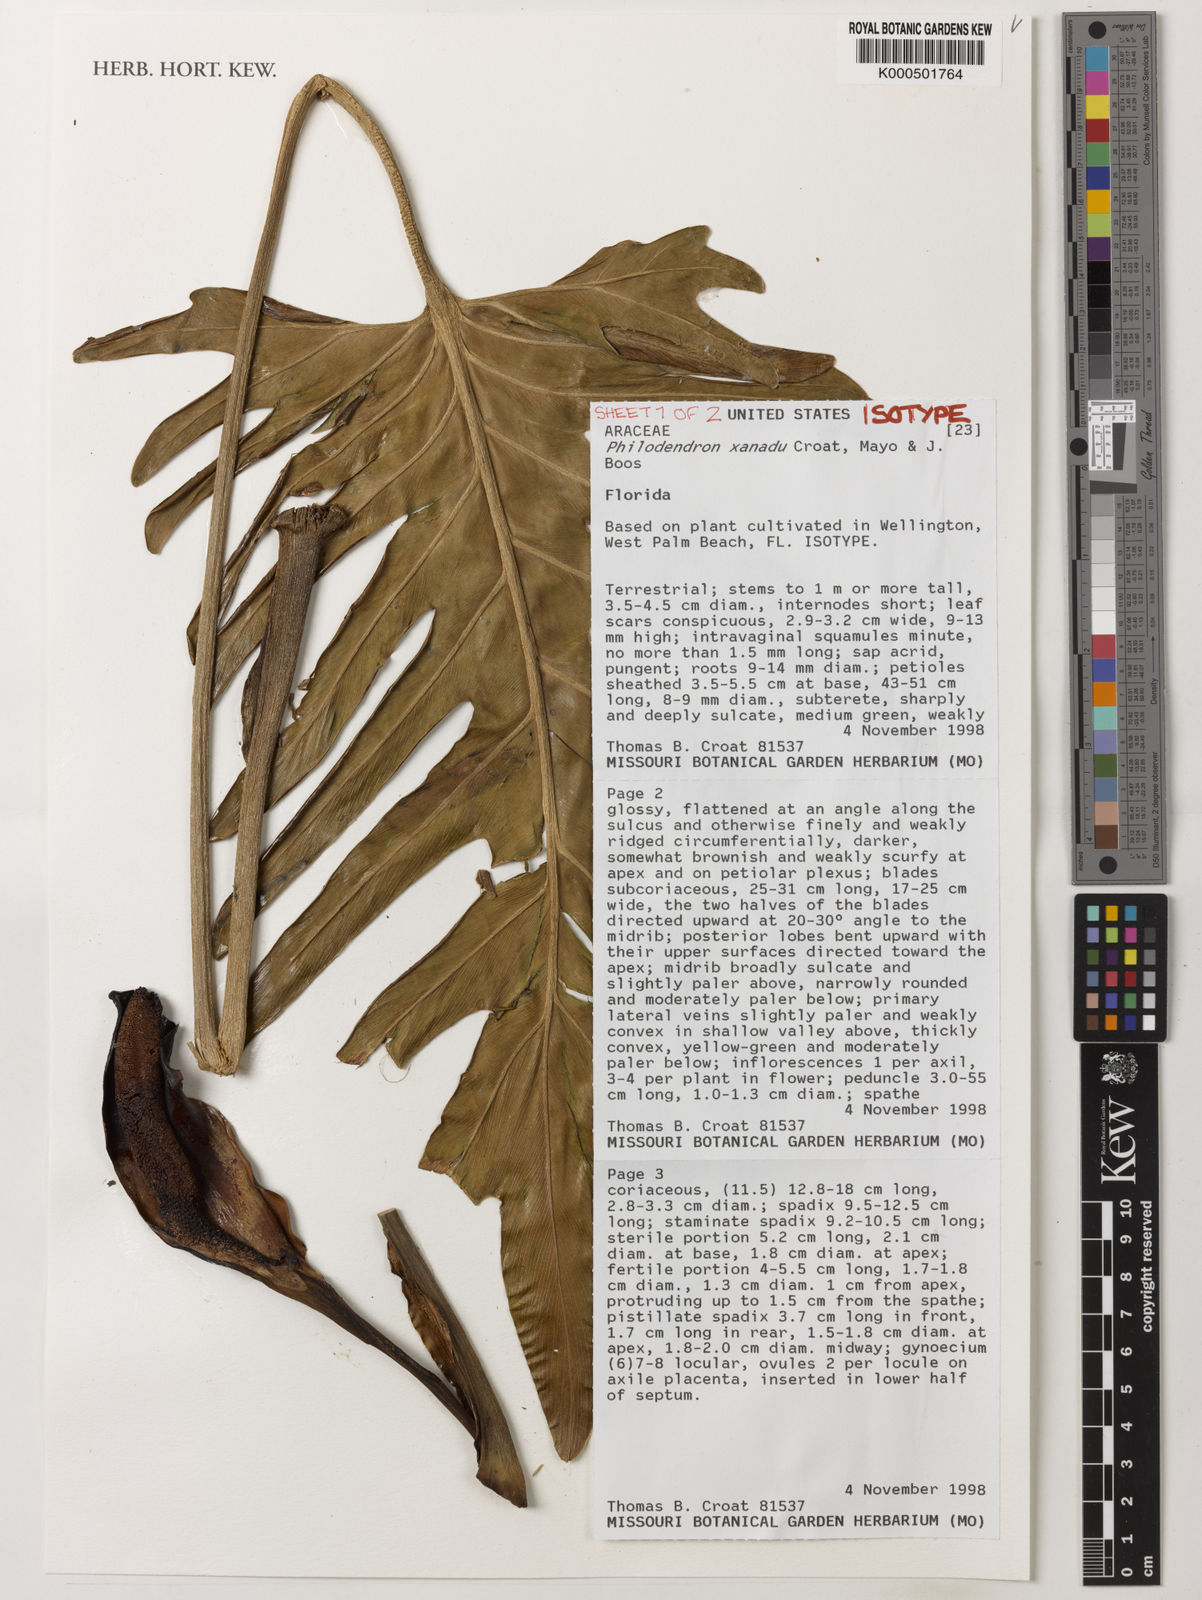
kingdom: Plantae
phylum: Tracheophyta
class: Liliopsida
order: Alismatales
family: Araceae
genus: Thaumatophyllum
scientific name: Thaumatophyllum xanadu
